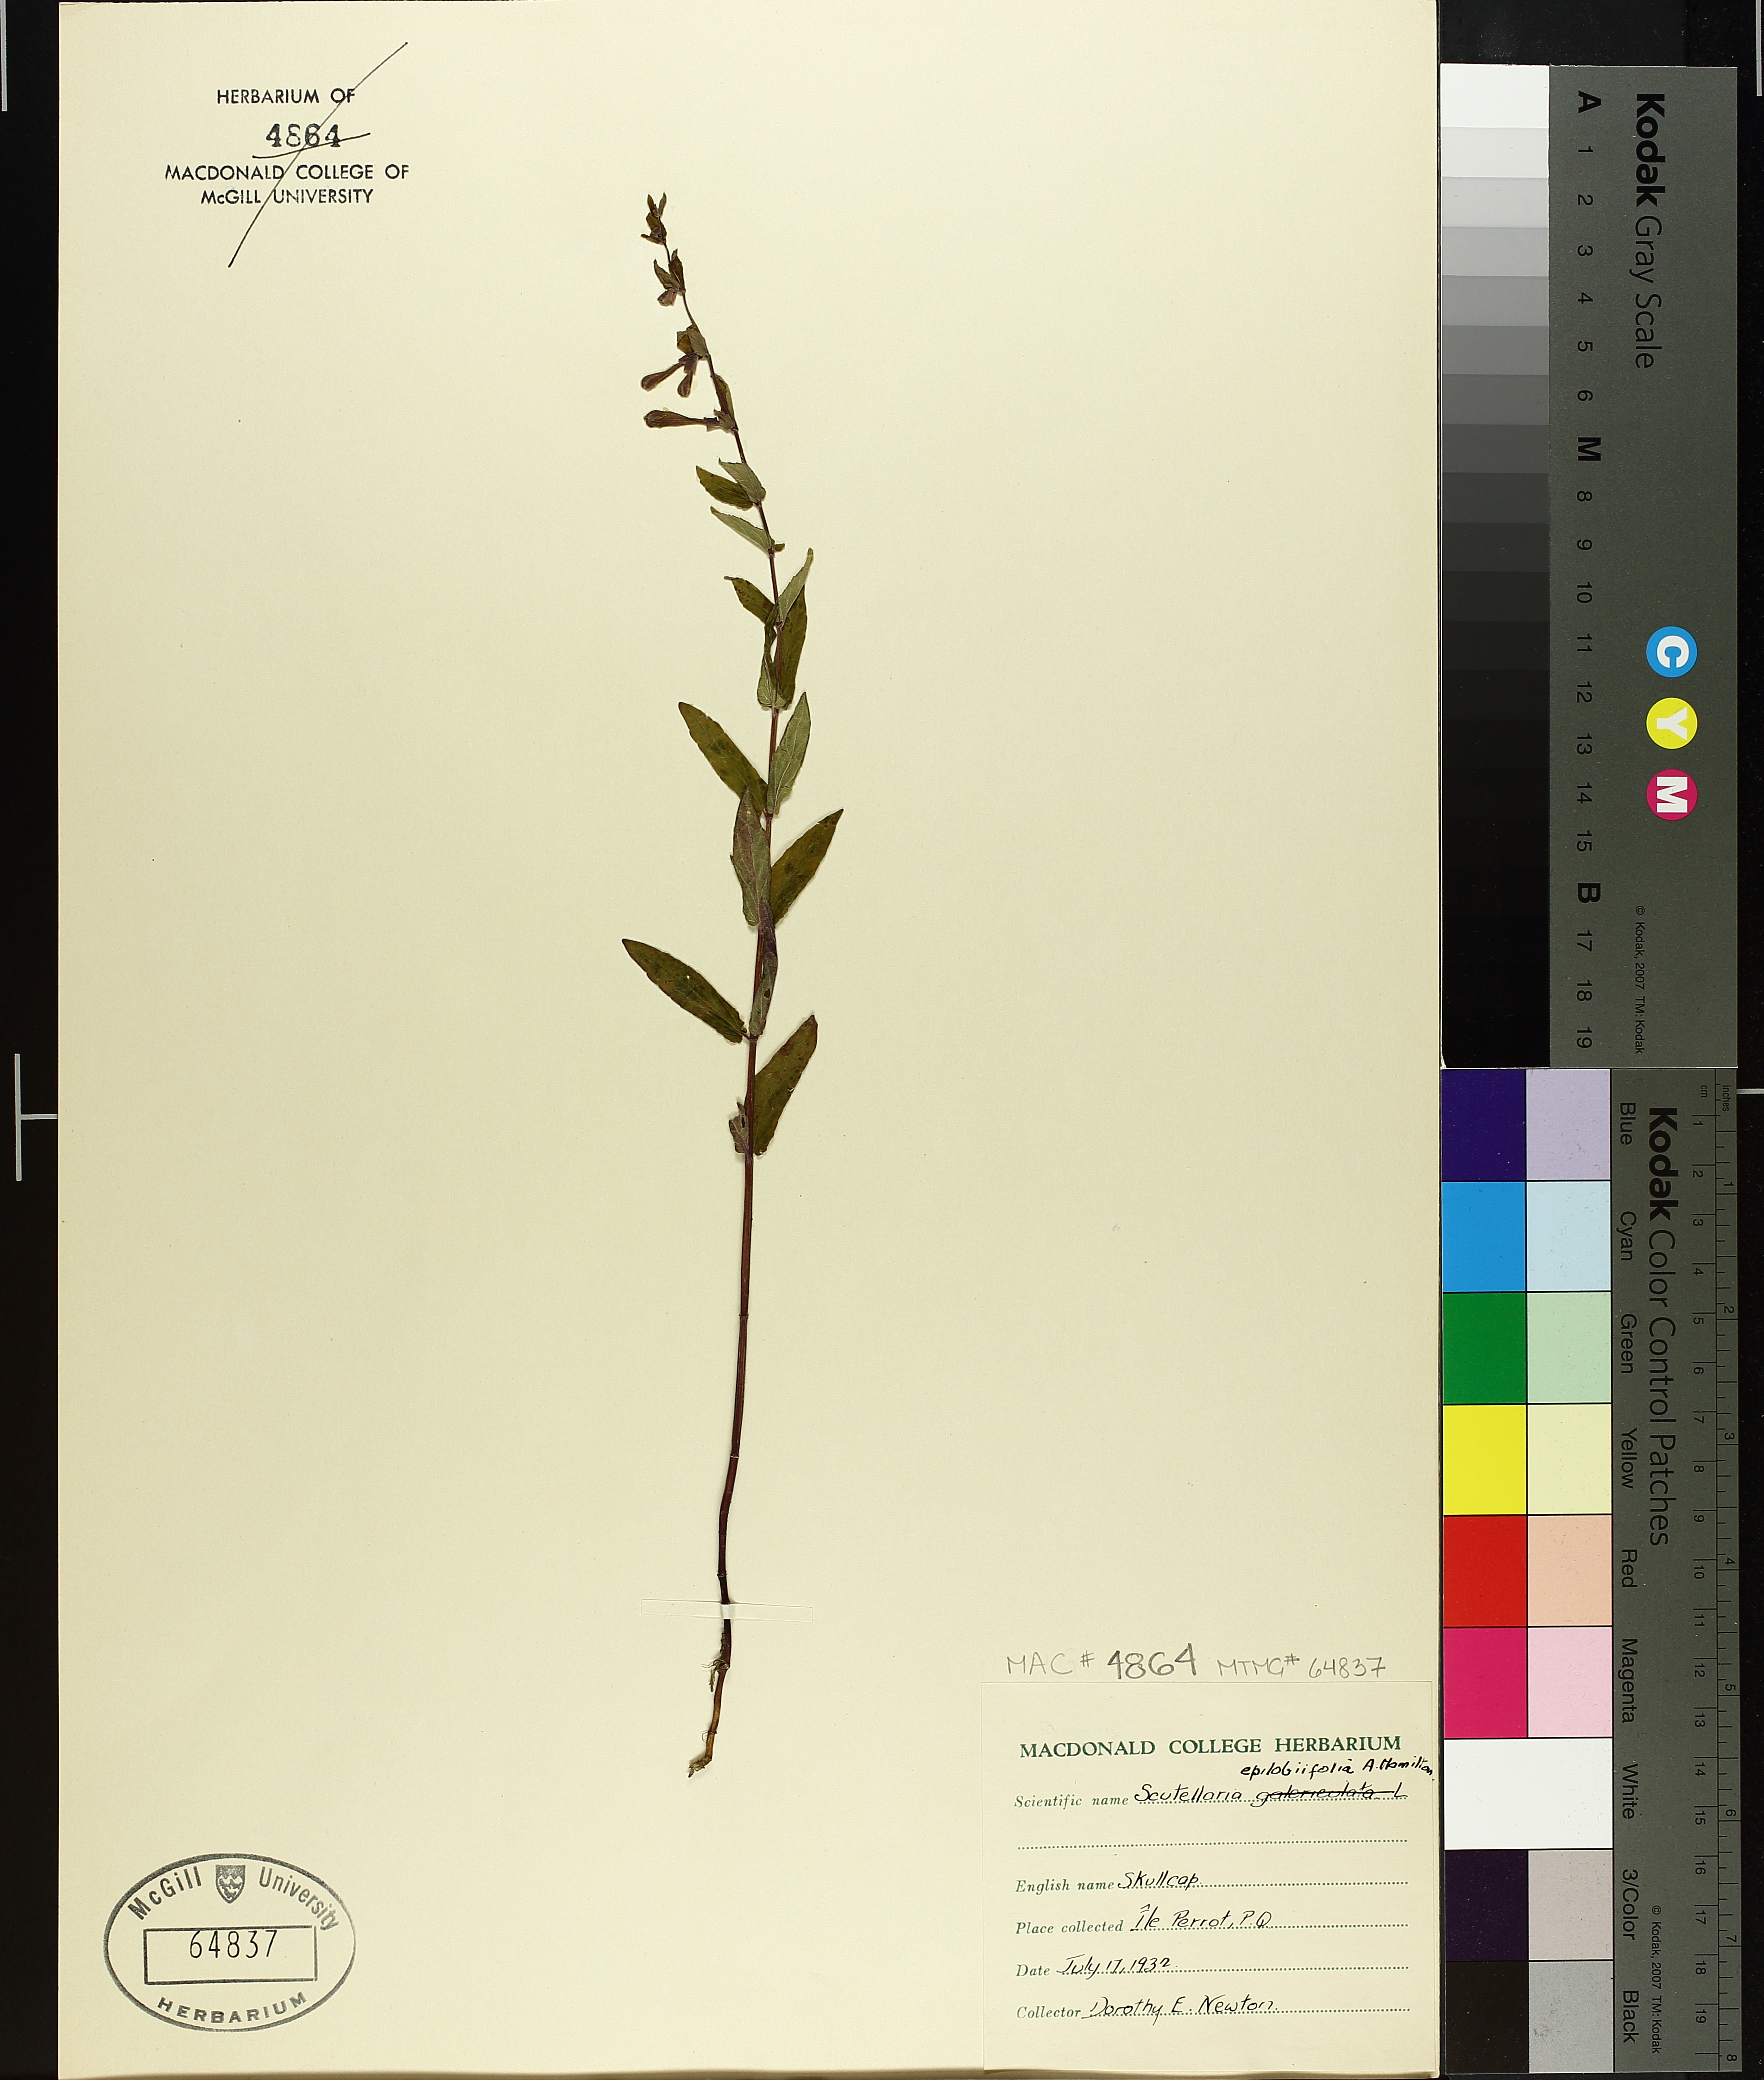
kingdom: Plantae
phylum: Tracheophyta
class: Magnoliopsida
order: Lamiales
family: Lamiaceae
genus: Scutellaria
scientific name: Scutellaria galericulata
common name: Skullcap
